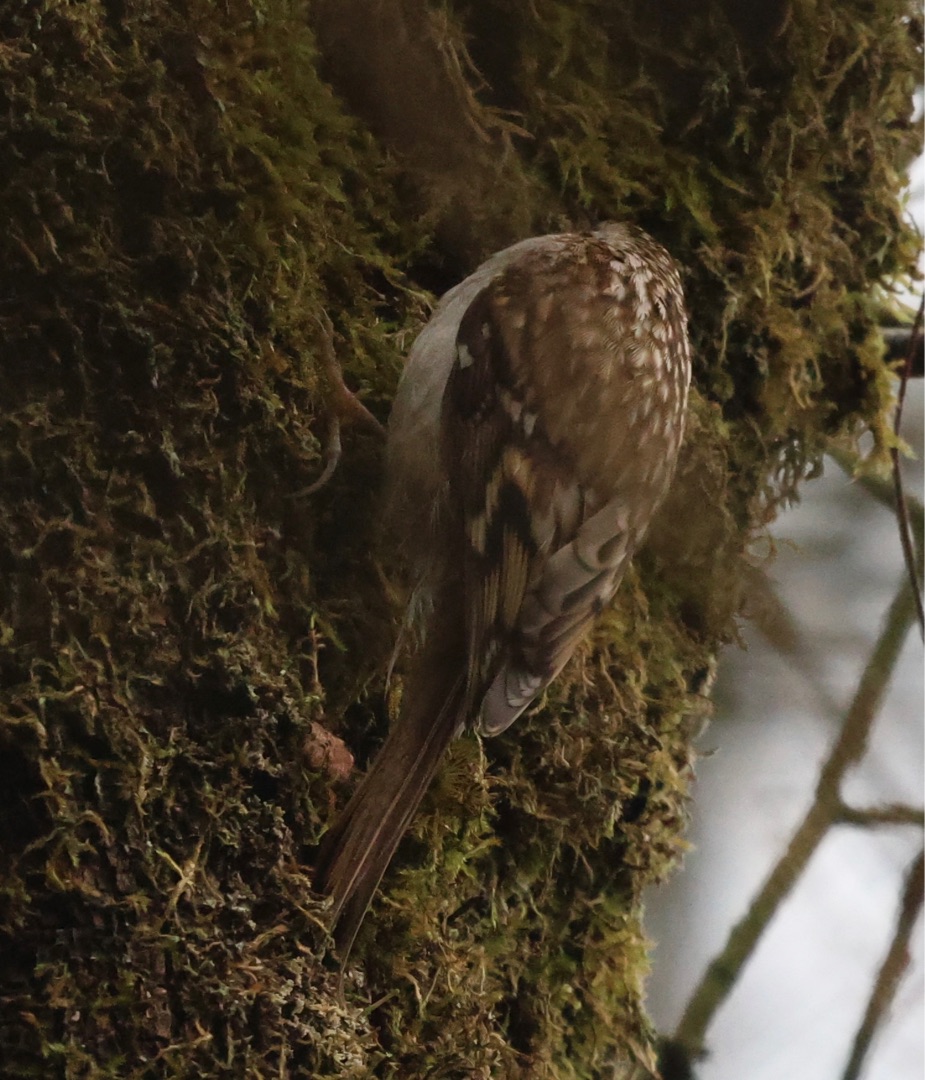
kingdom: Animalia
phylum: Chordata
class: Aves
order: Passeriformes
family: Certhiidae
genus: Certhia
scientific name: Certhia familiaris
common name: Træløber
